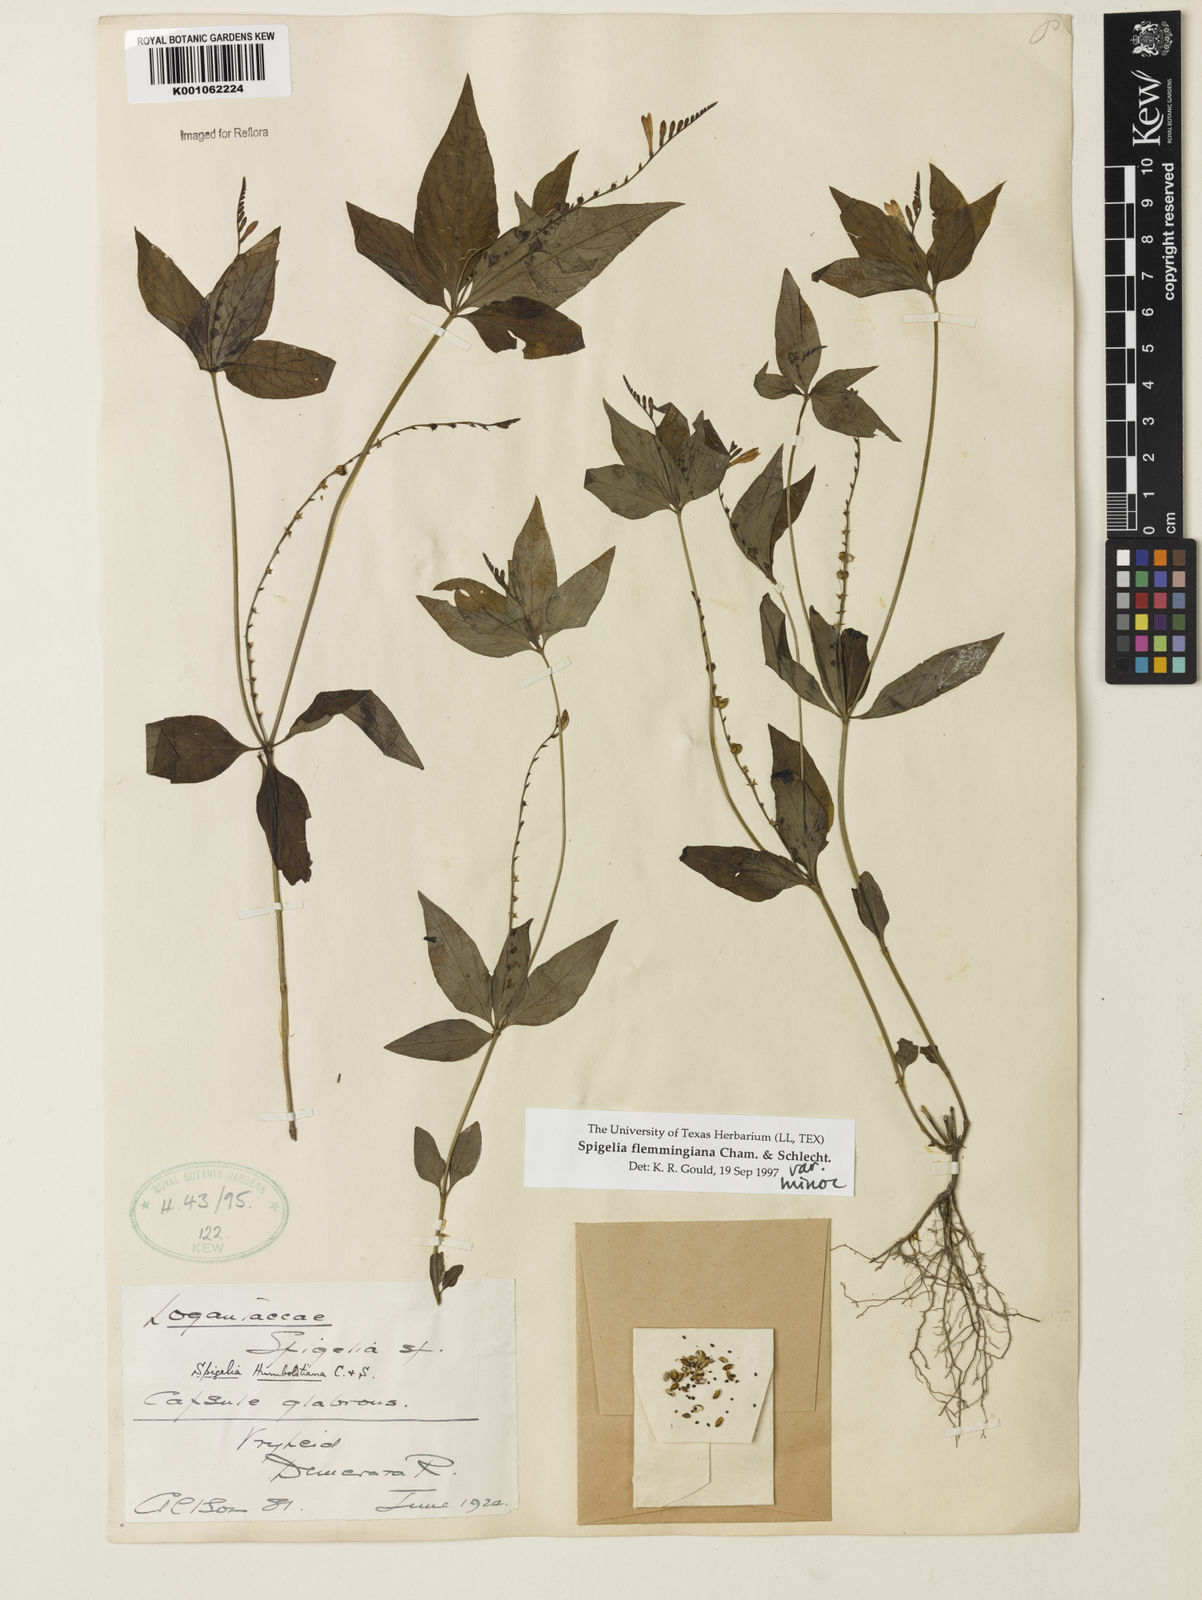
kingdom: Plantae
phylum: Tracheophyta
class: Magnoliopsida
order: Gentianales
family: Loganiaceae
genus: Spigelia
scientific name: Spigelia flemmingiana
